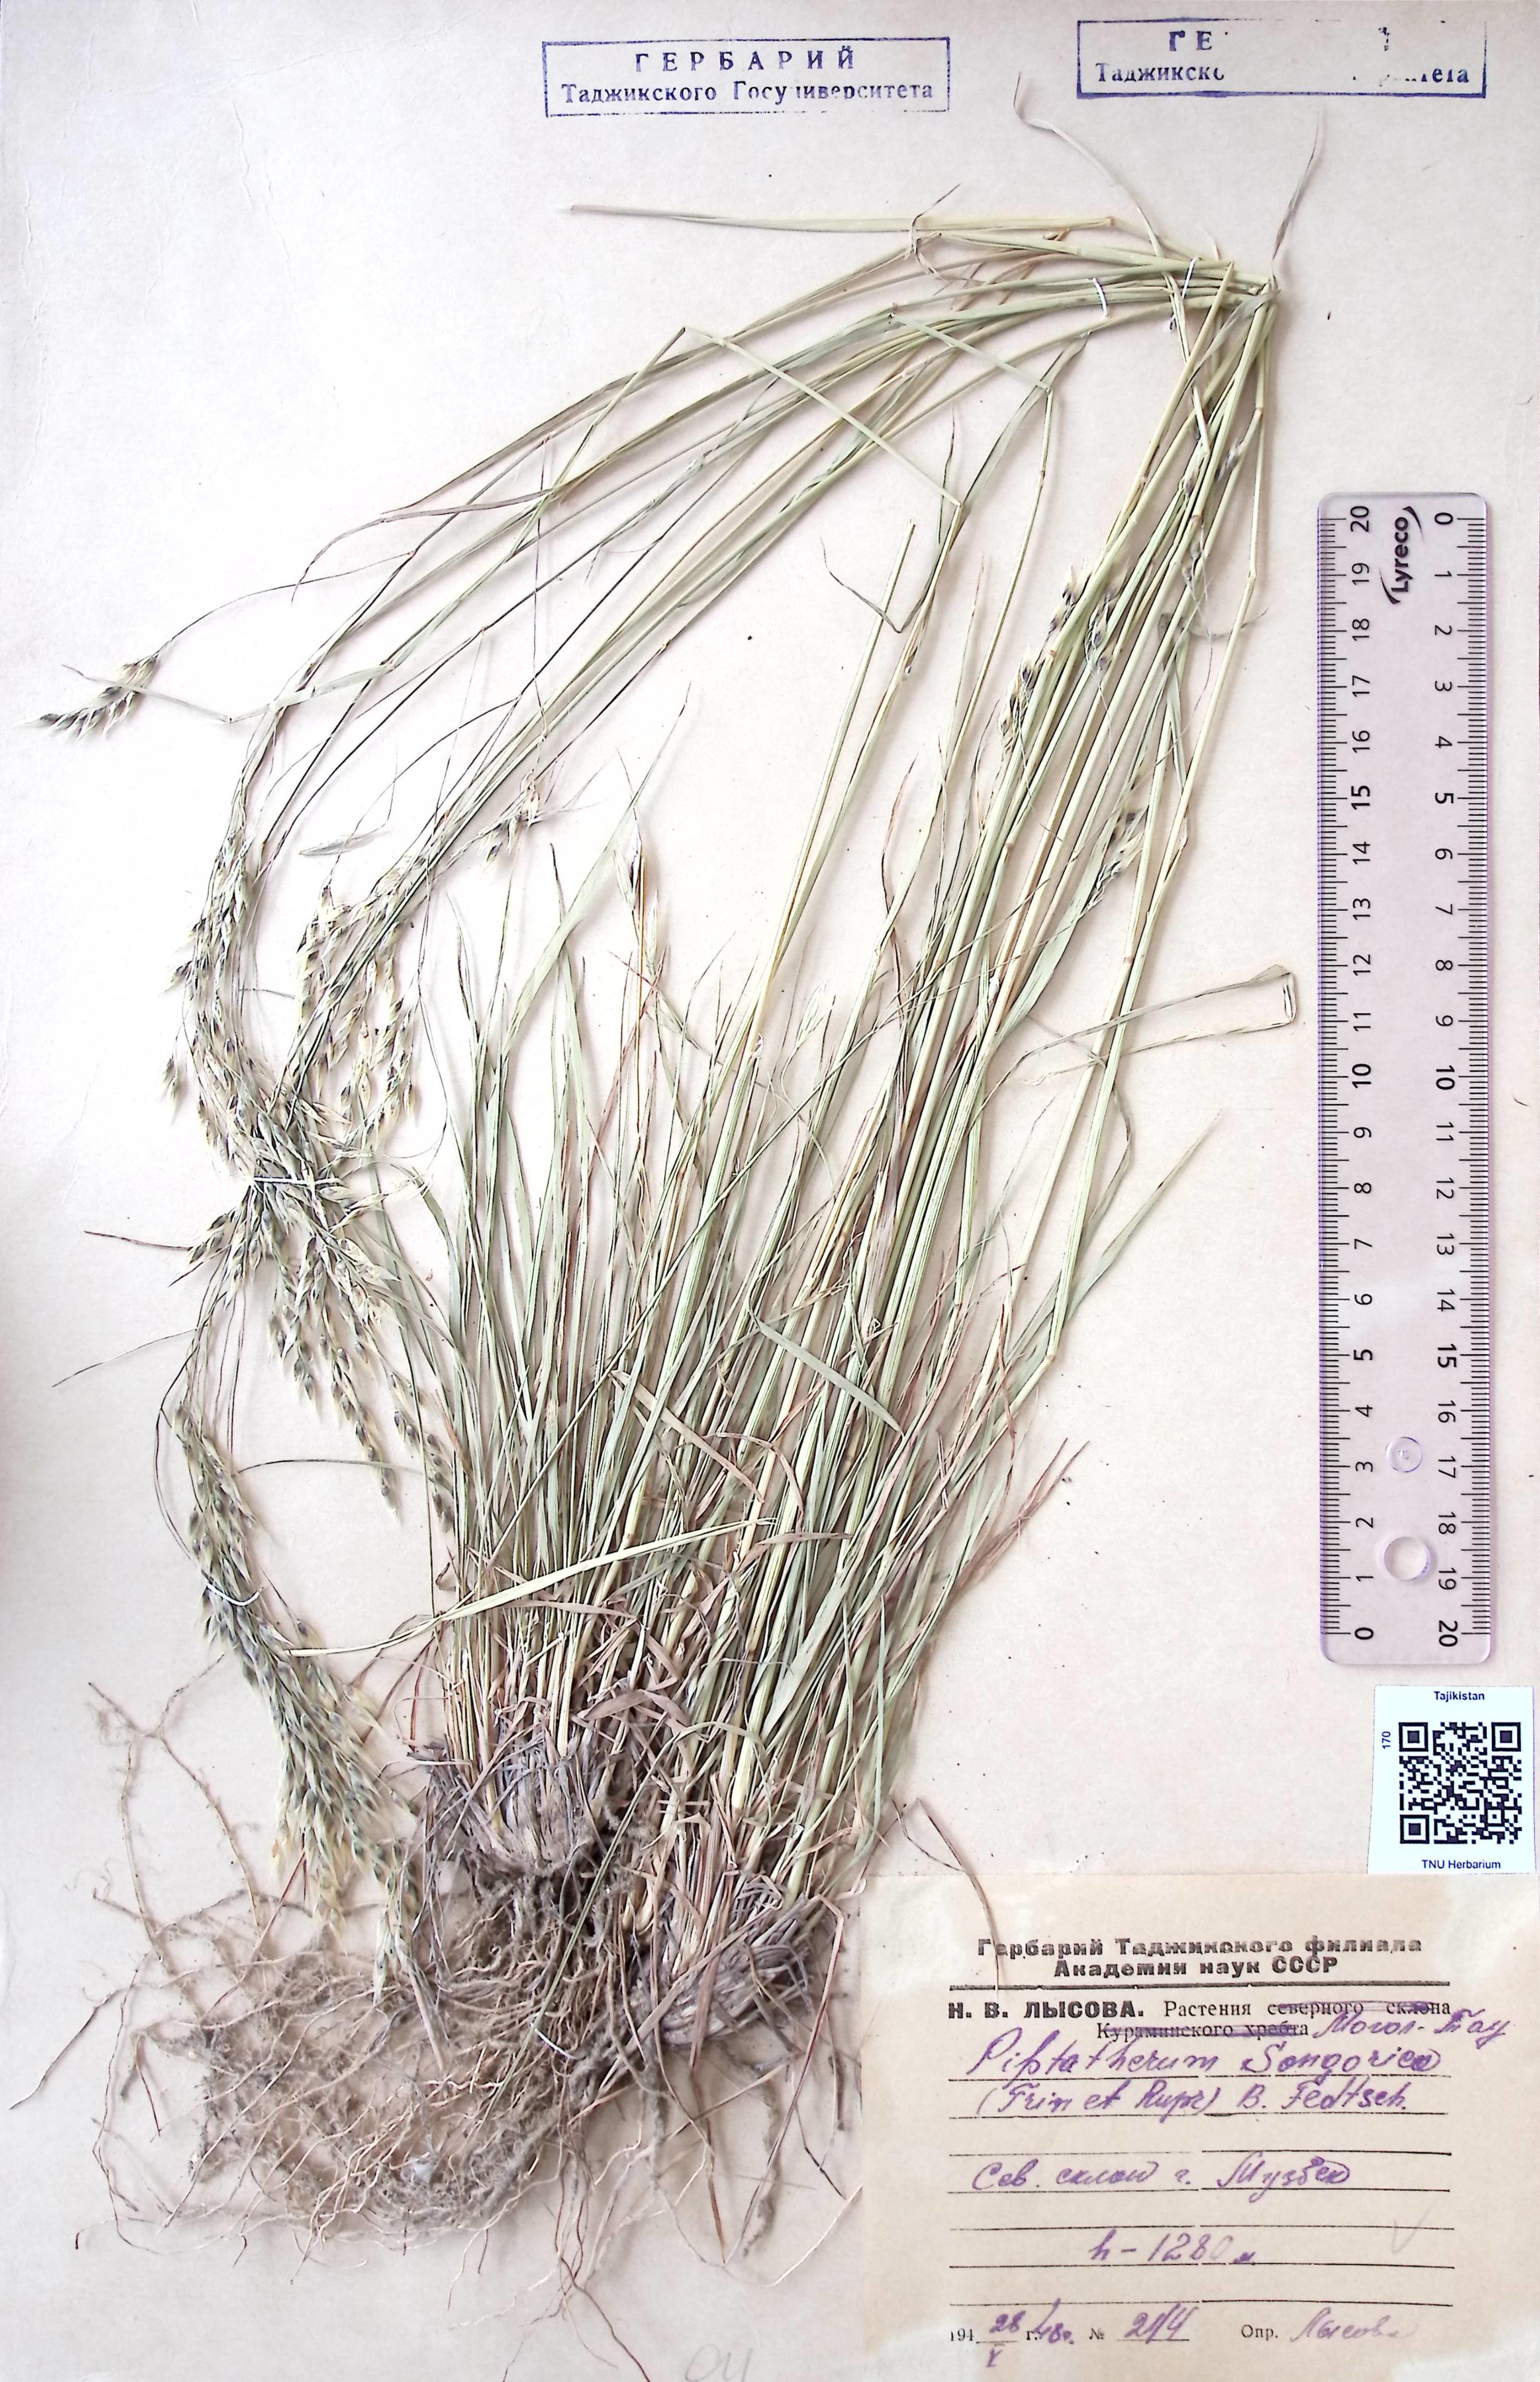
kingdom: Plantae
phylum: Tracheophyta
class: Liliopsida
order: Poales
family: Poaceae
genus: Piptatherum
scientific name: Piptatherum songaricum
